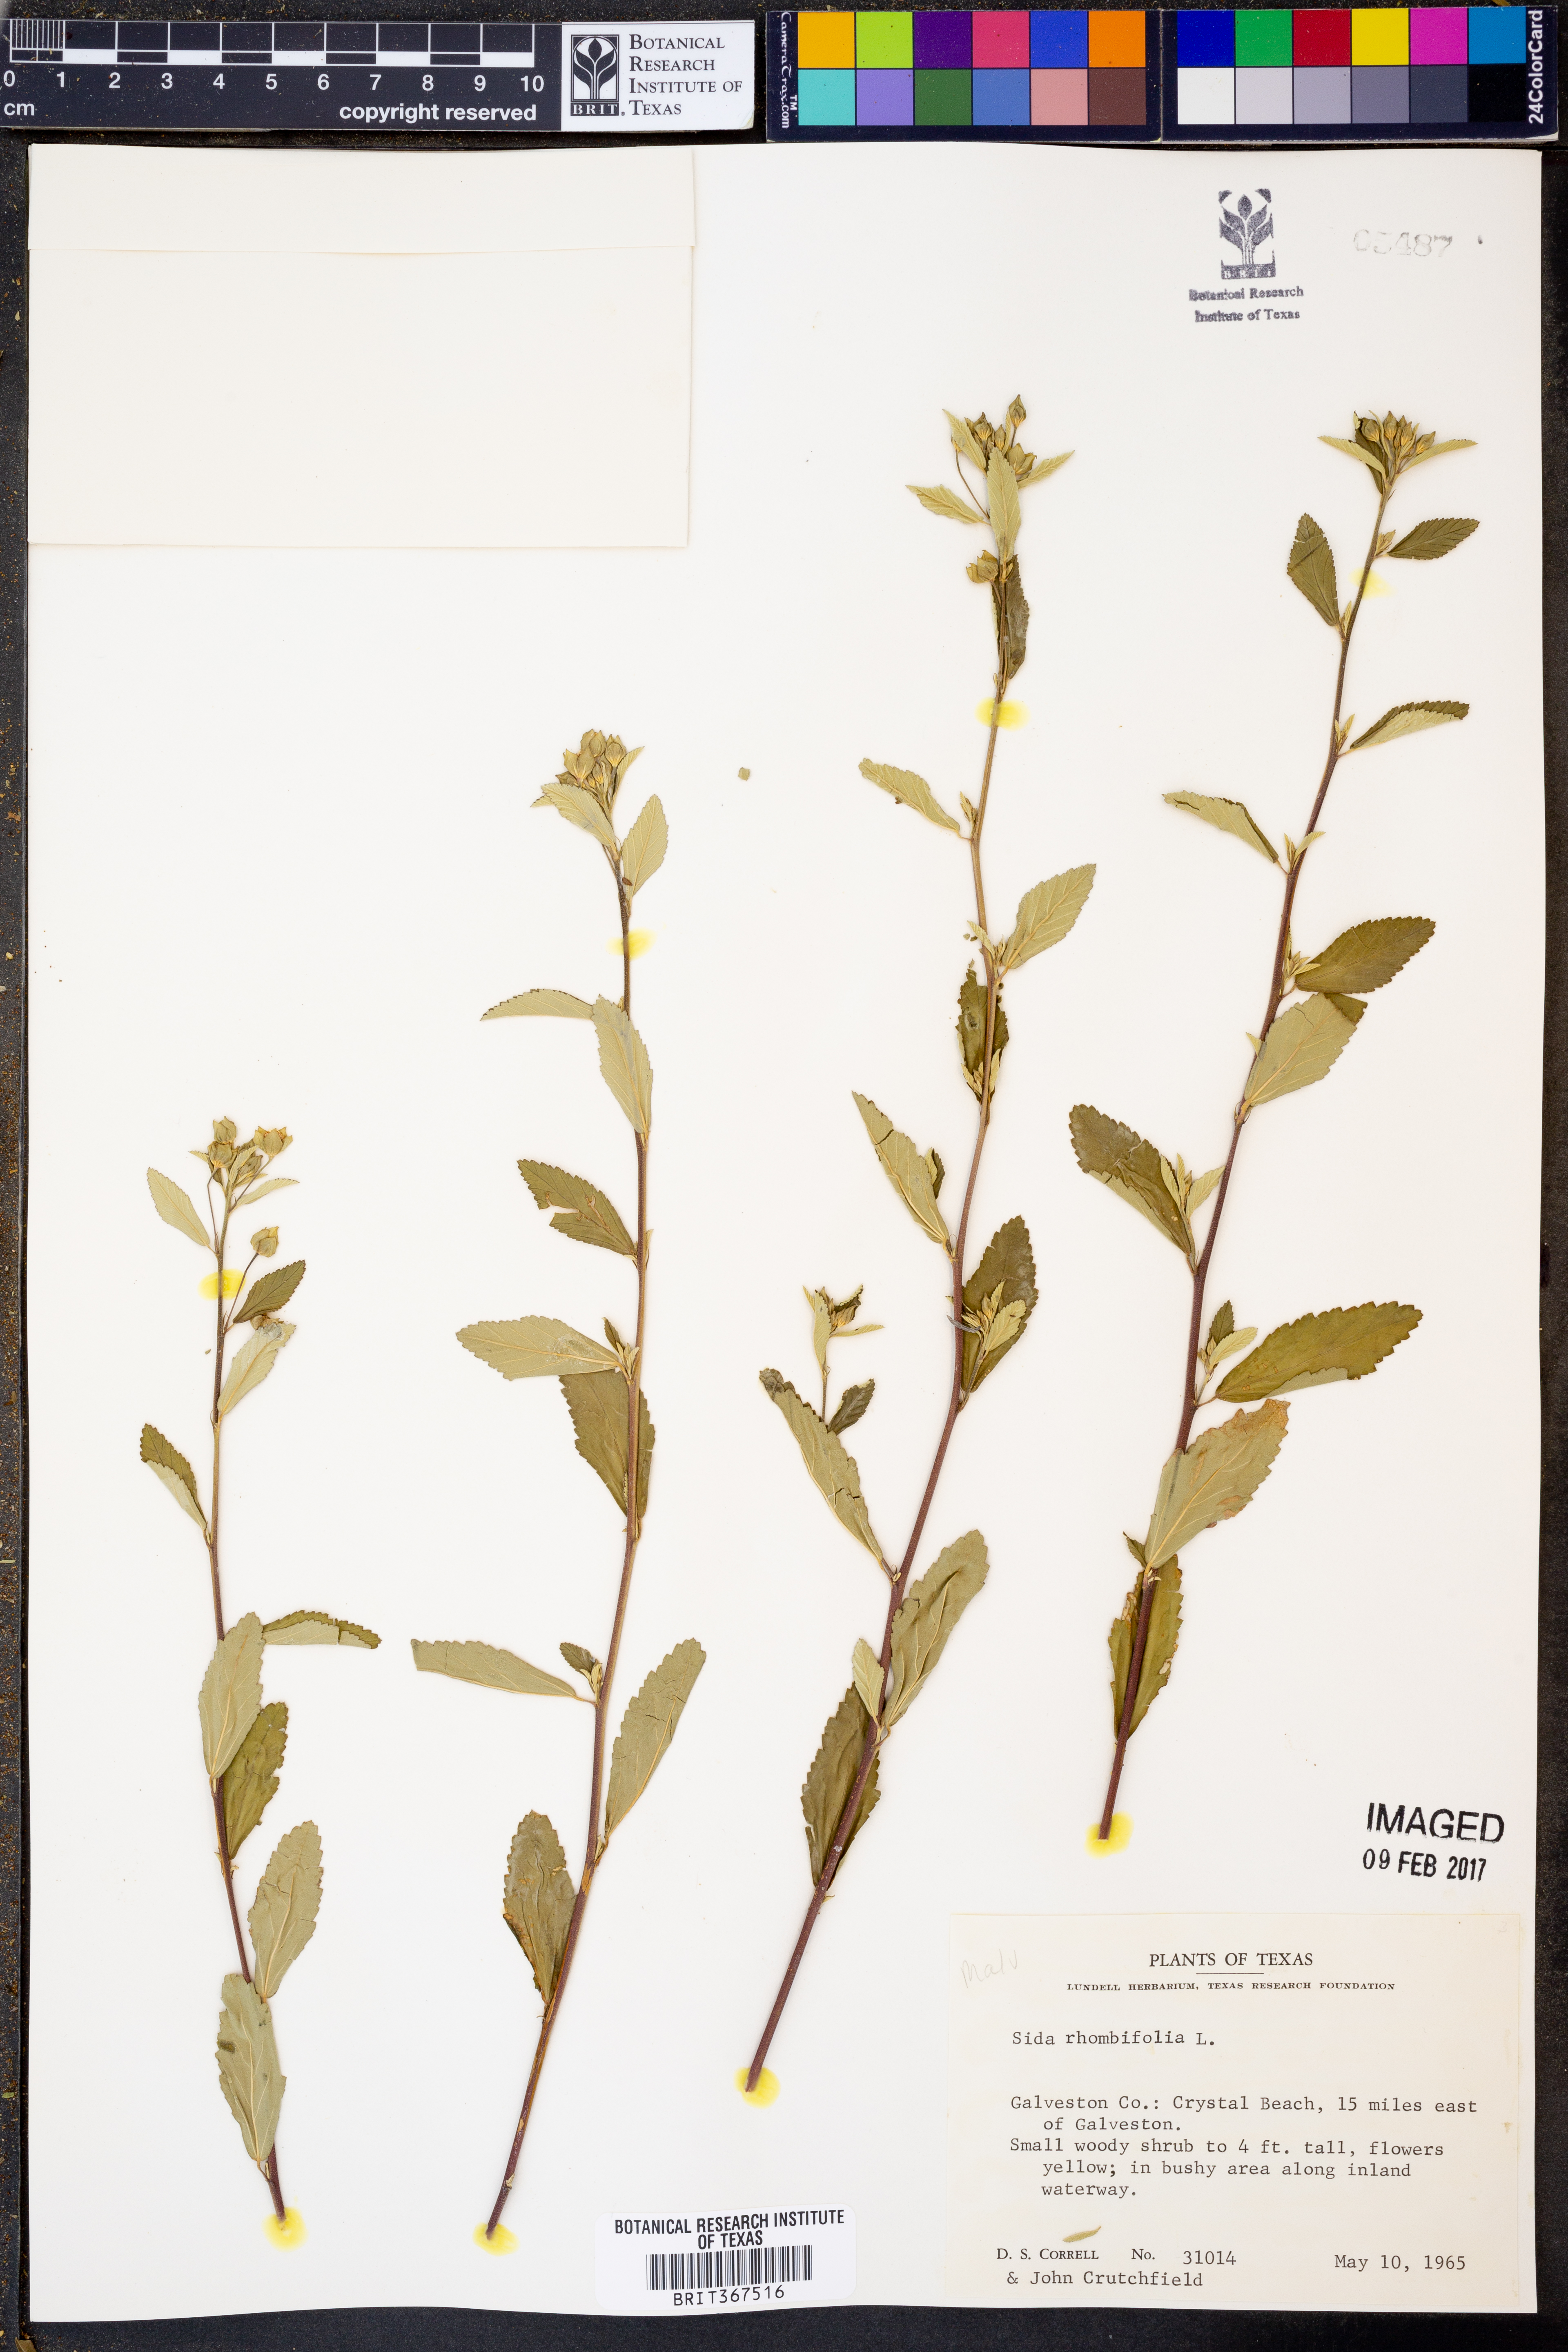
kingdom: Plantae
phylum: Tracheophyta
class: Magnoliopsida
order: Malvales
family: Malvaceae
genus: Sida
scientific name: Sida rhombifolia
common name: Queensland-hemp
